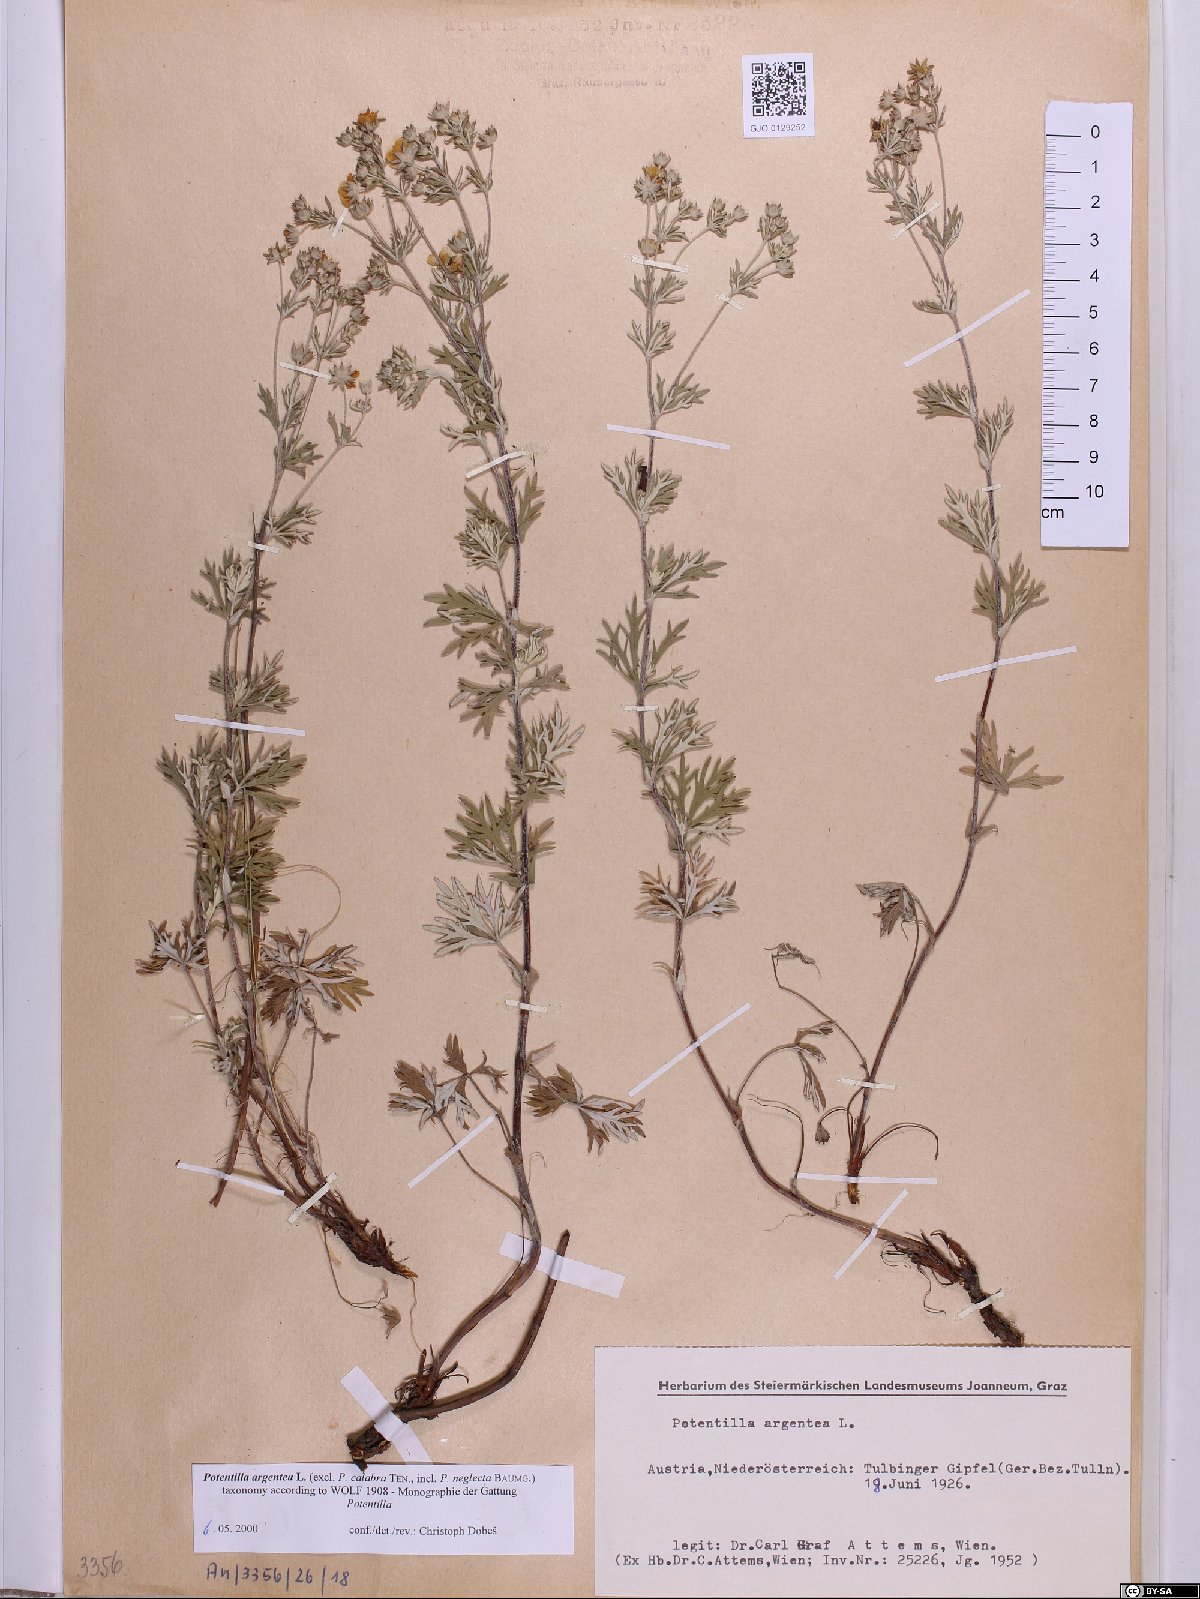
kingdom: Plantae
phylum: Tracheophyta
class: Magnoliopsida
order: Rosales
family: Rosaceae
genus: Potentilla
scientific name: Potentilla argentea
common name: Hoary cinquefoil
